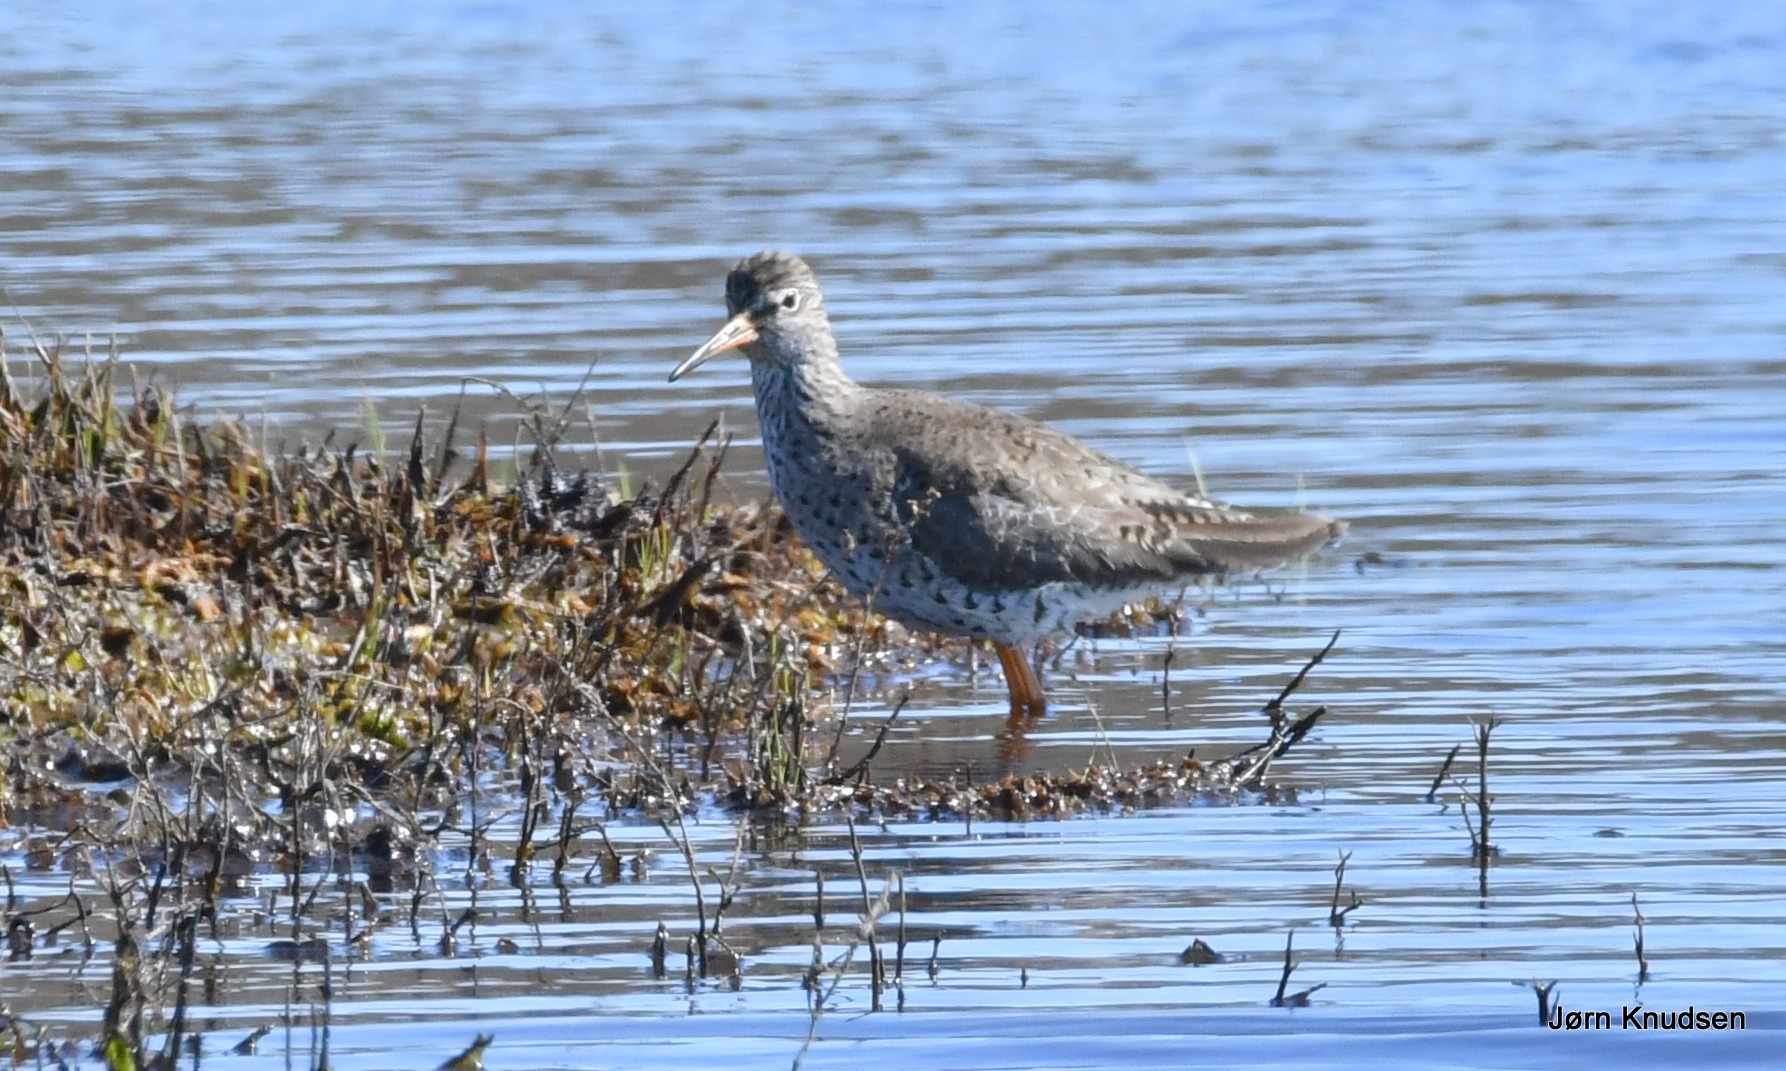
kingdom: Animalia
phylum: Chordata
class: Aves
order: Charadriiformes
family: Scolopacidae
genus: Tringa
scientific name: Tringa totanus
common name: Rødben
